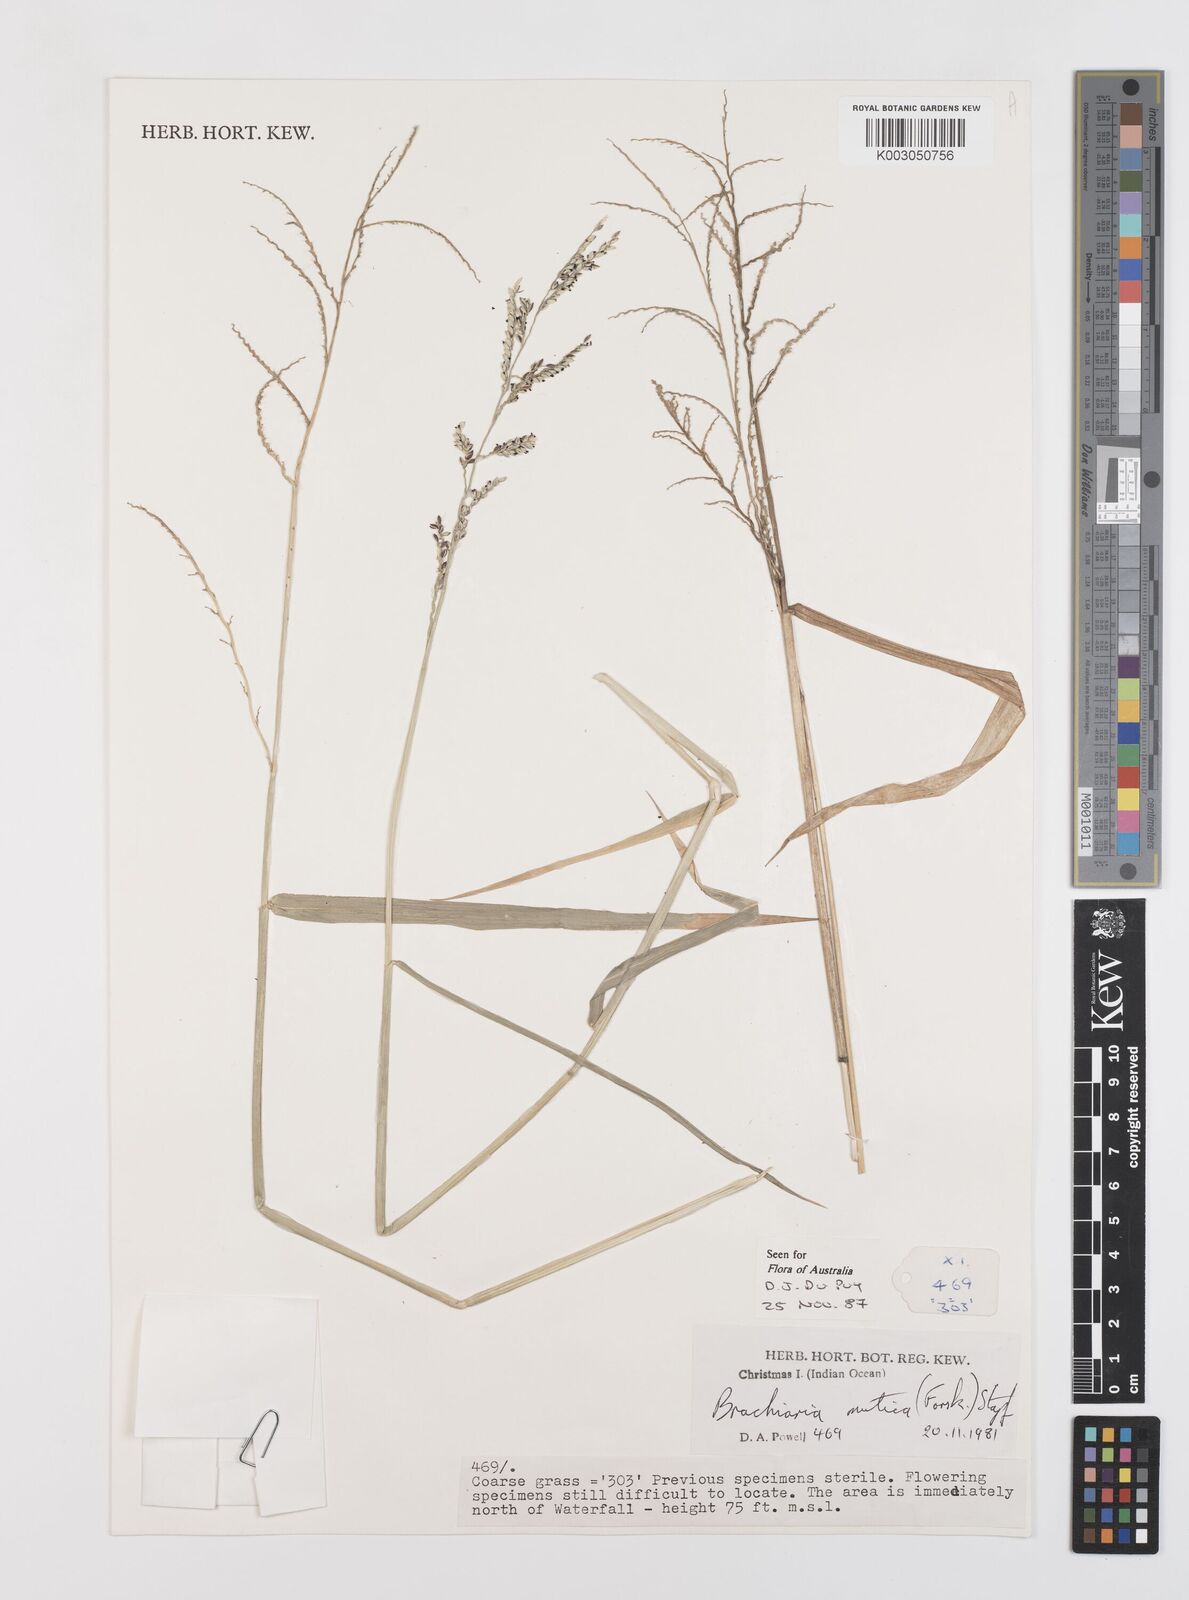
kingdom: Plantae
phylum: Tracheophyta
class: Liliopsida
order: Poales
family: Poaceae
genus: Urochloa
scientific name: Urochloa mutica
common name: Para grass
